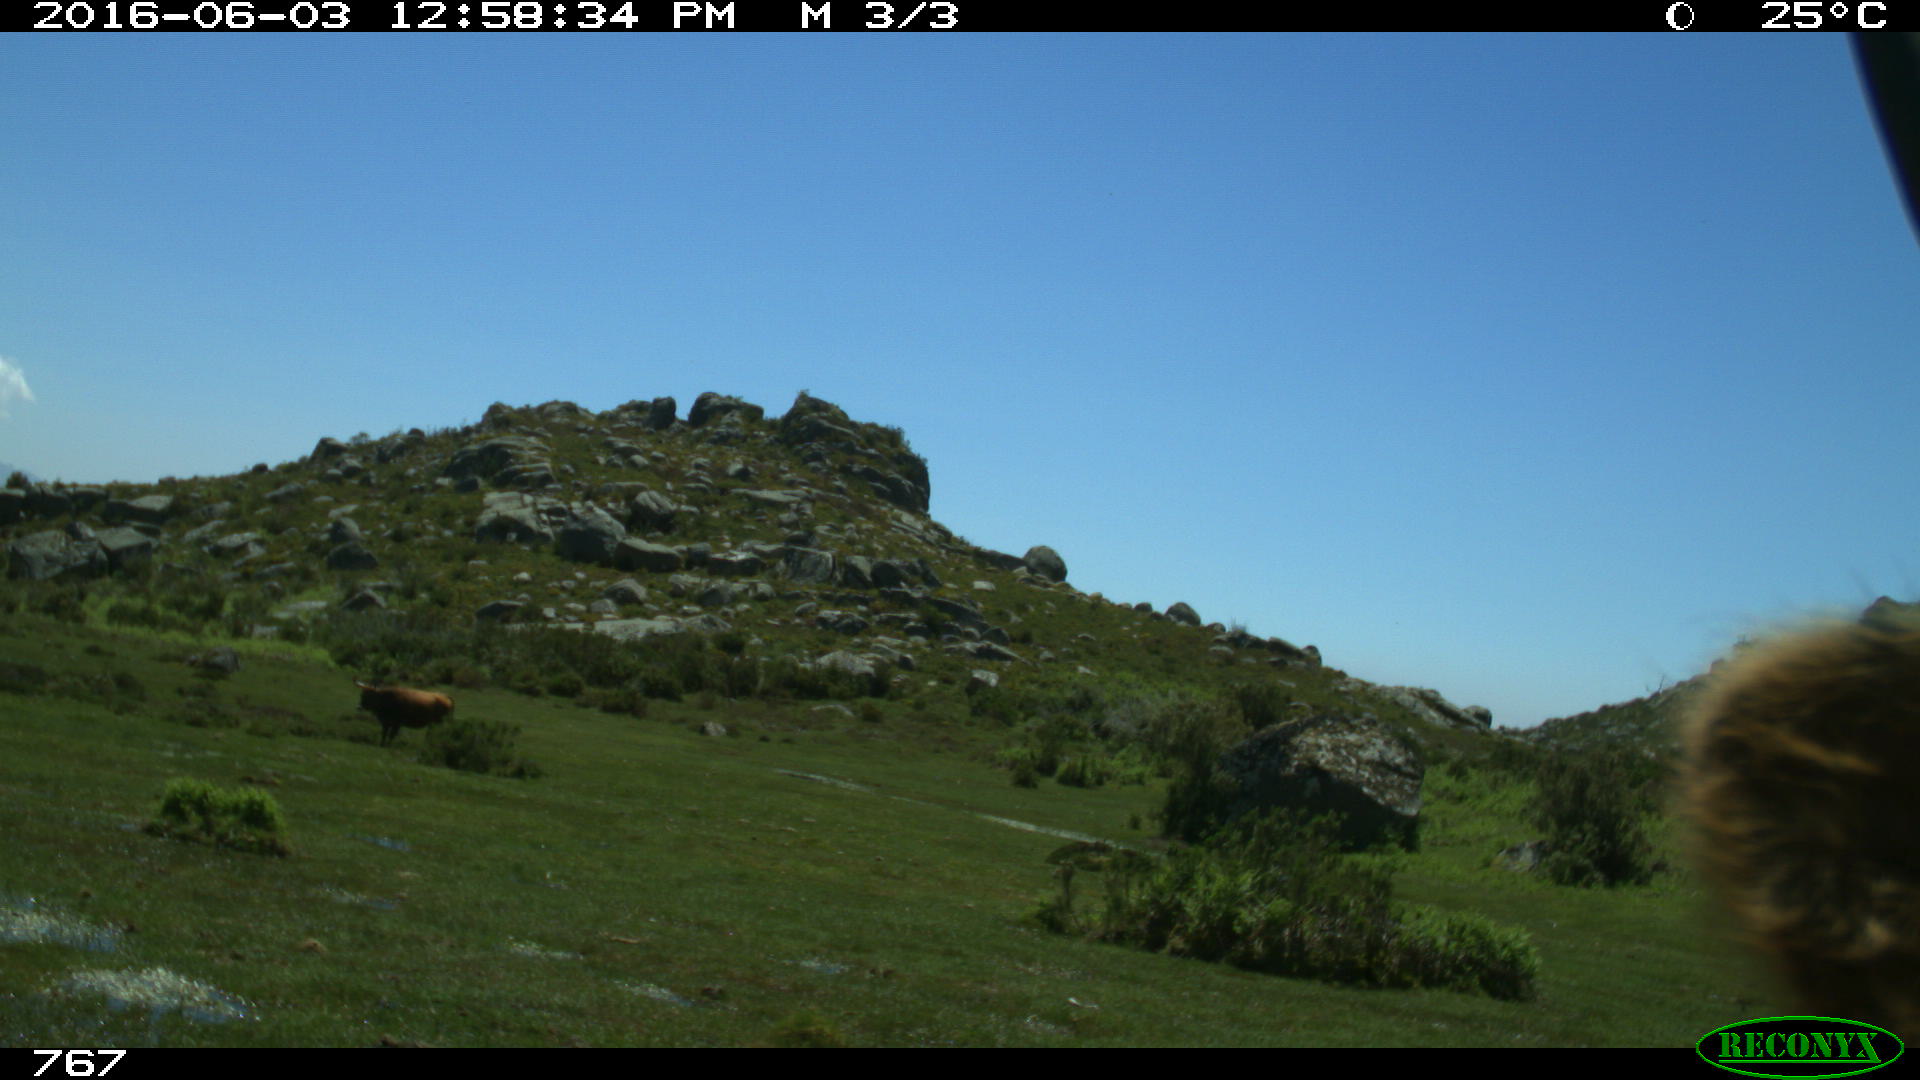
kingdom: Animalia
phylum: Chordata
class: Mammalia
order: Artiodactyla
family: Bovidae
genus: Bos
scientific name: Bos taurus
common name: Domesticated cattle
